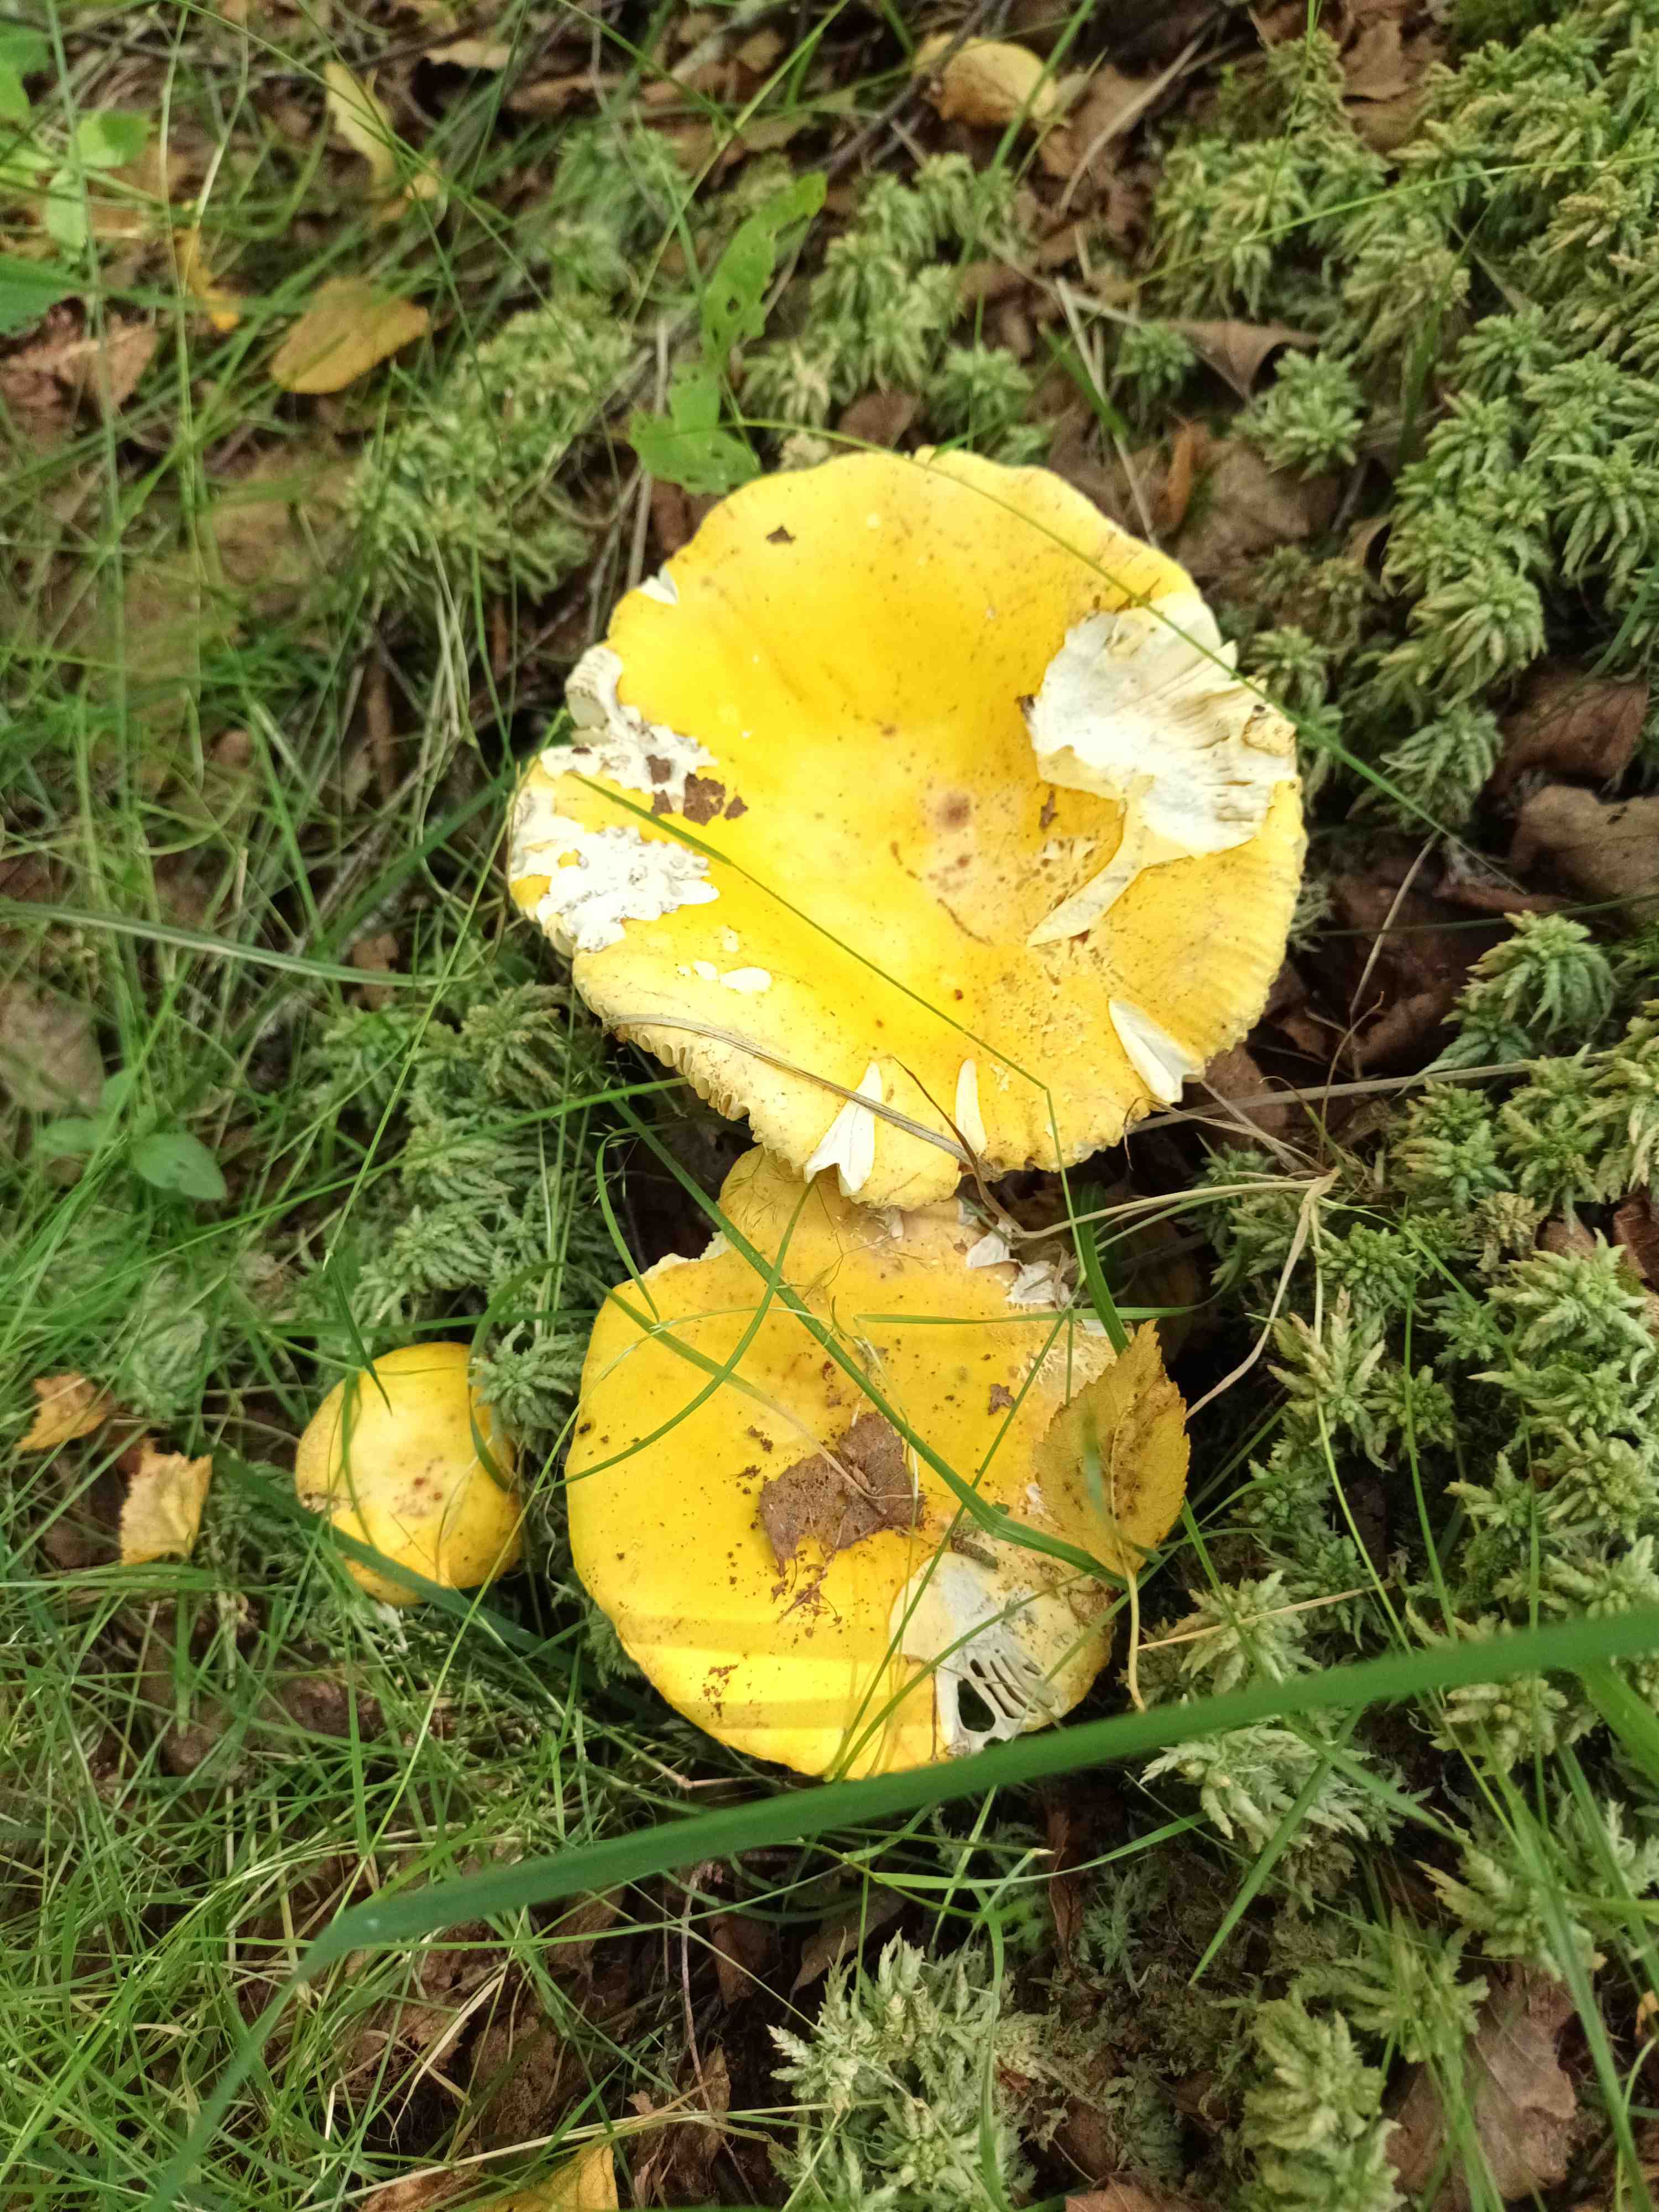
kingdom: Fungi
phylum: Basidiomycota
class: Agaricomycetes
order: Russulales
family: Russulaceae
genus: Russula
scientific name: Russula claroflava
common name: birke-skørhat
